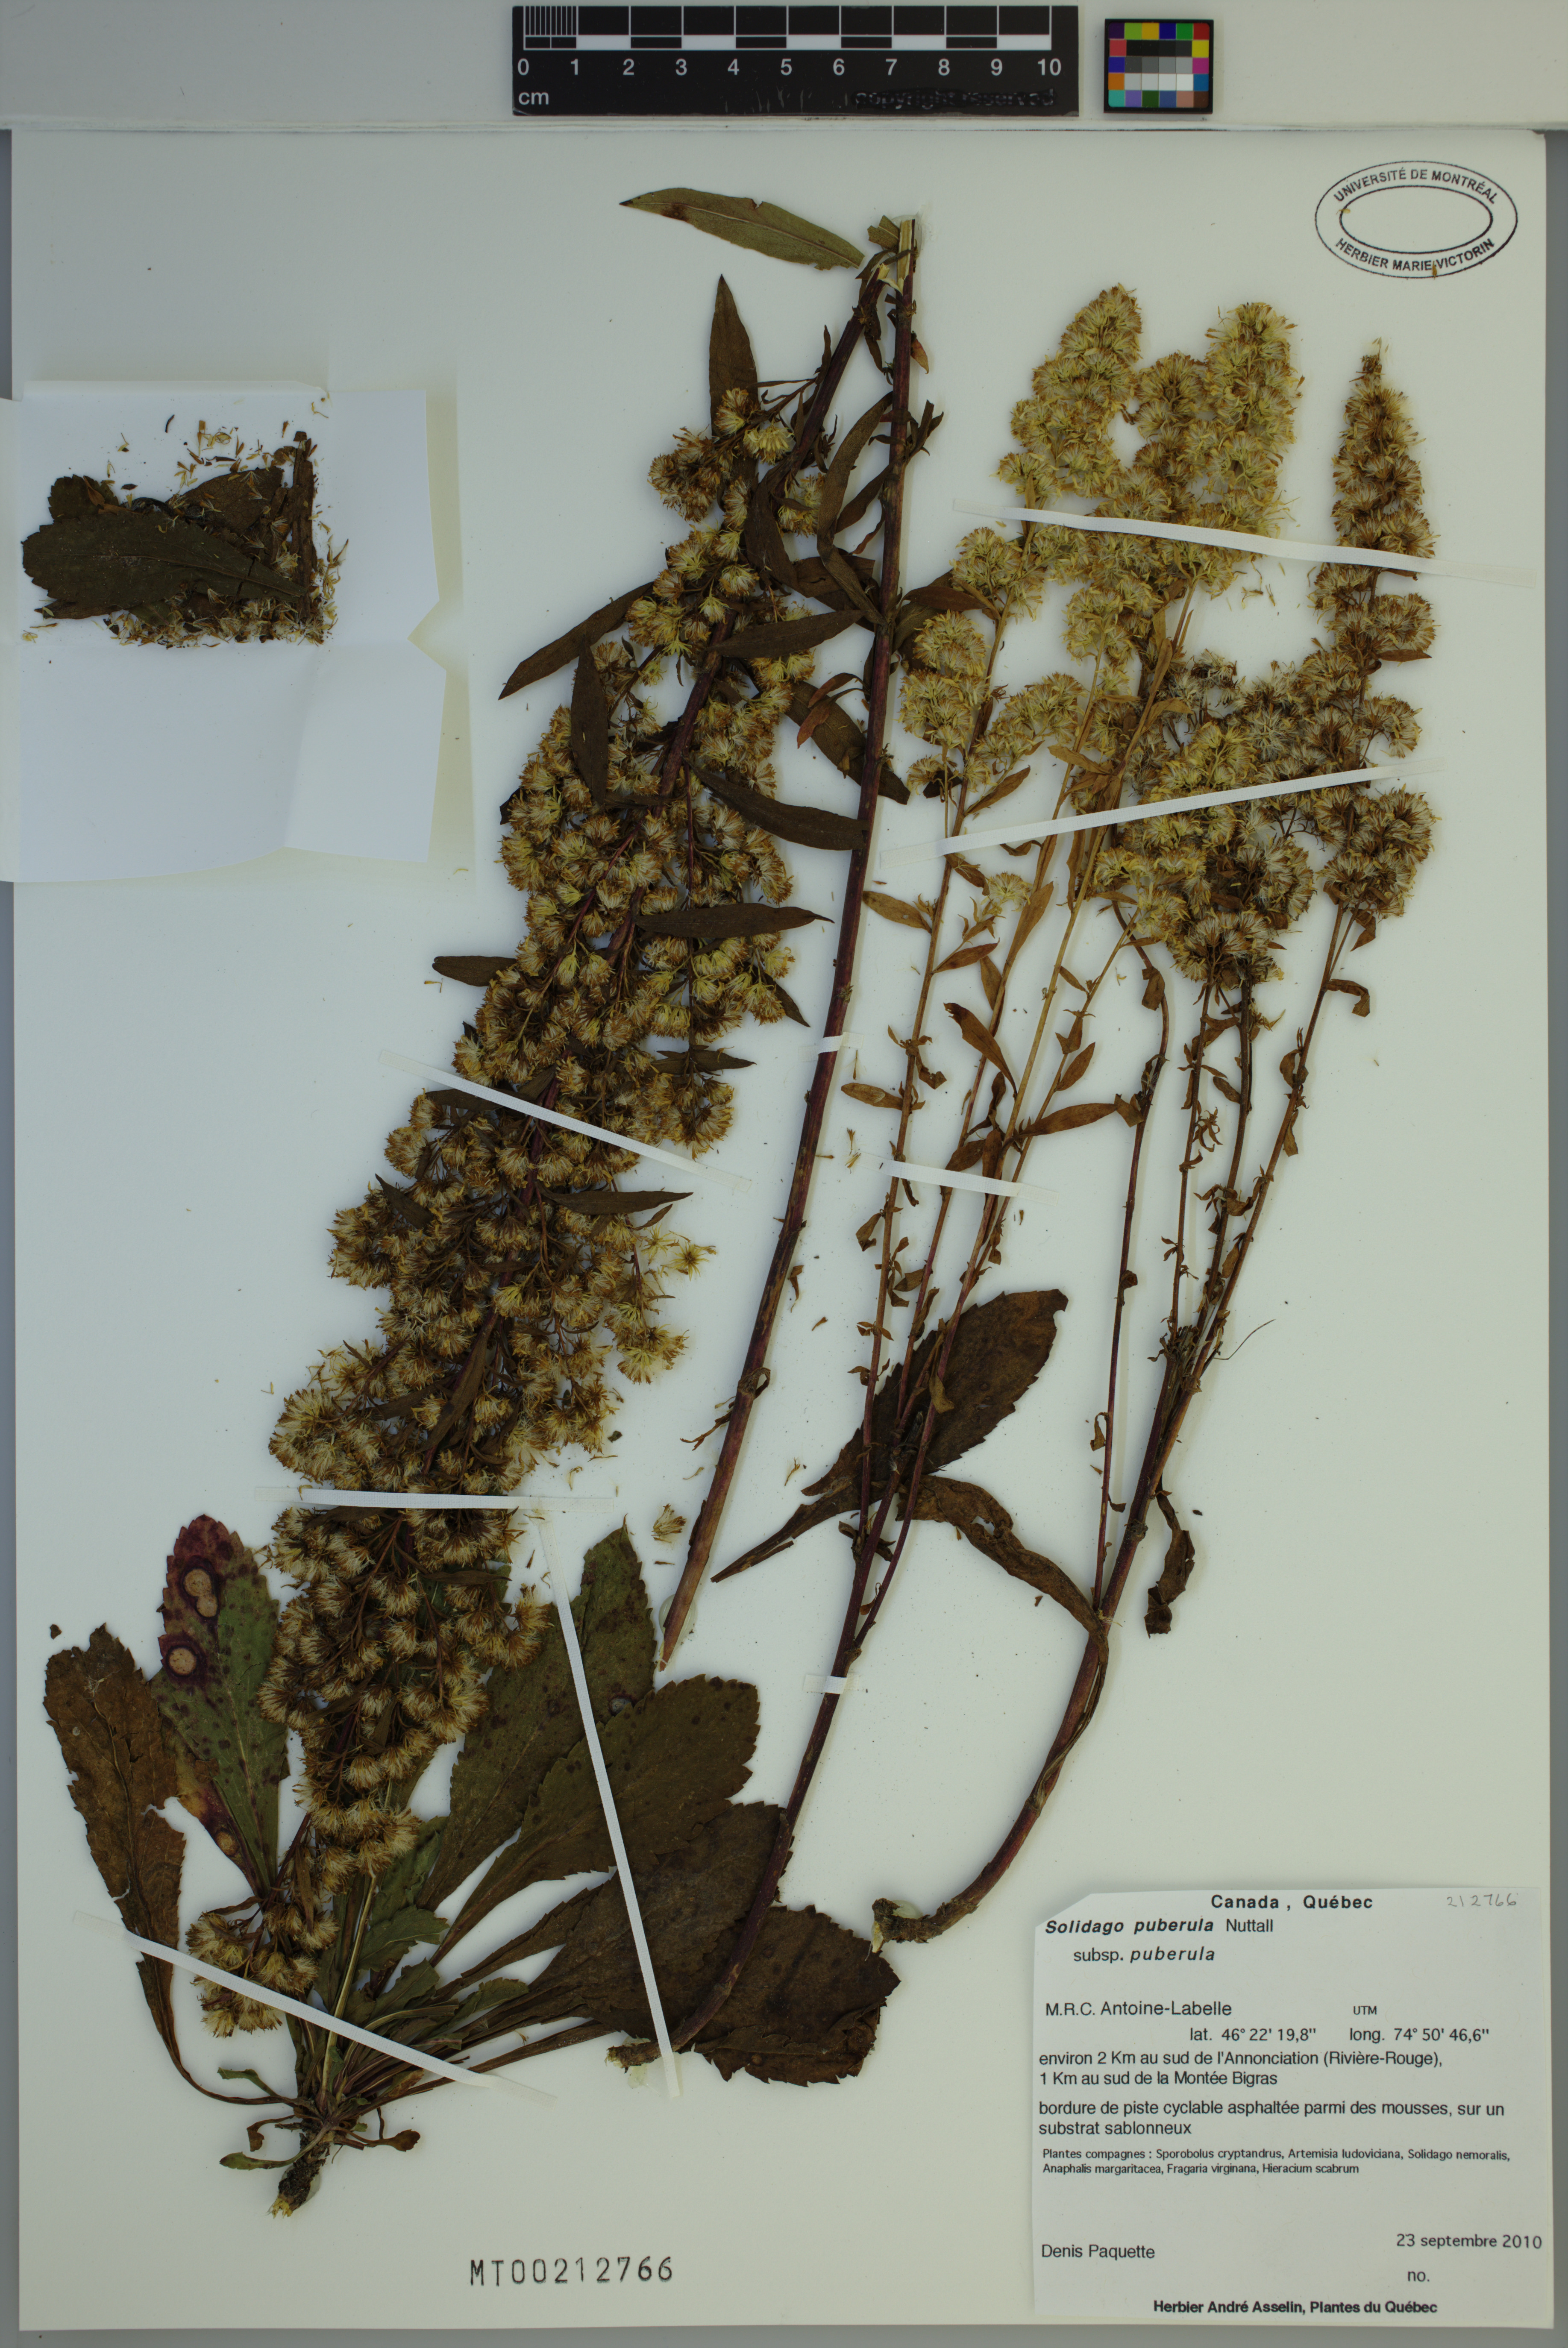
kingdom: Plantae
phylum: Tracheophyta
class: Magnoliopsida
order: Asterales
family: Asteraceae
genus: Solidago
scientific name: Solidago puberula
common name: Downy goldenrod
